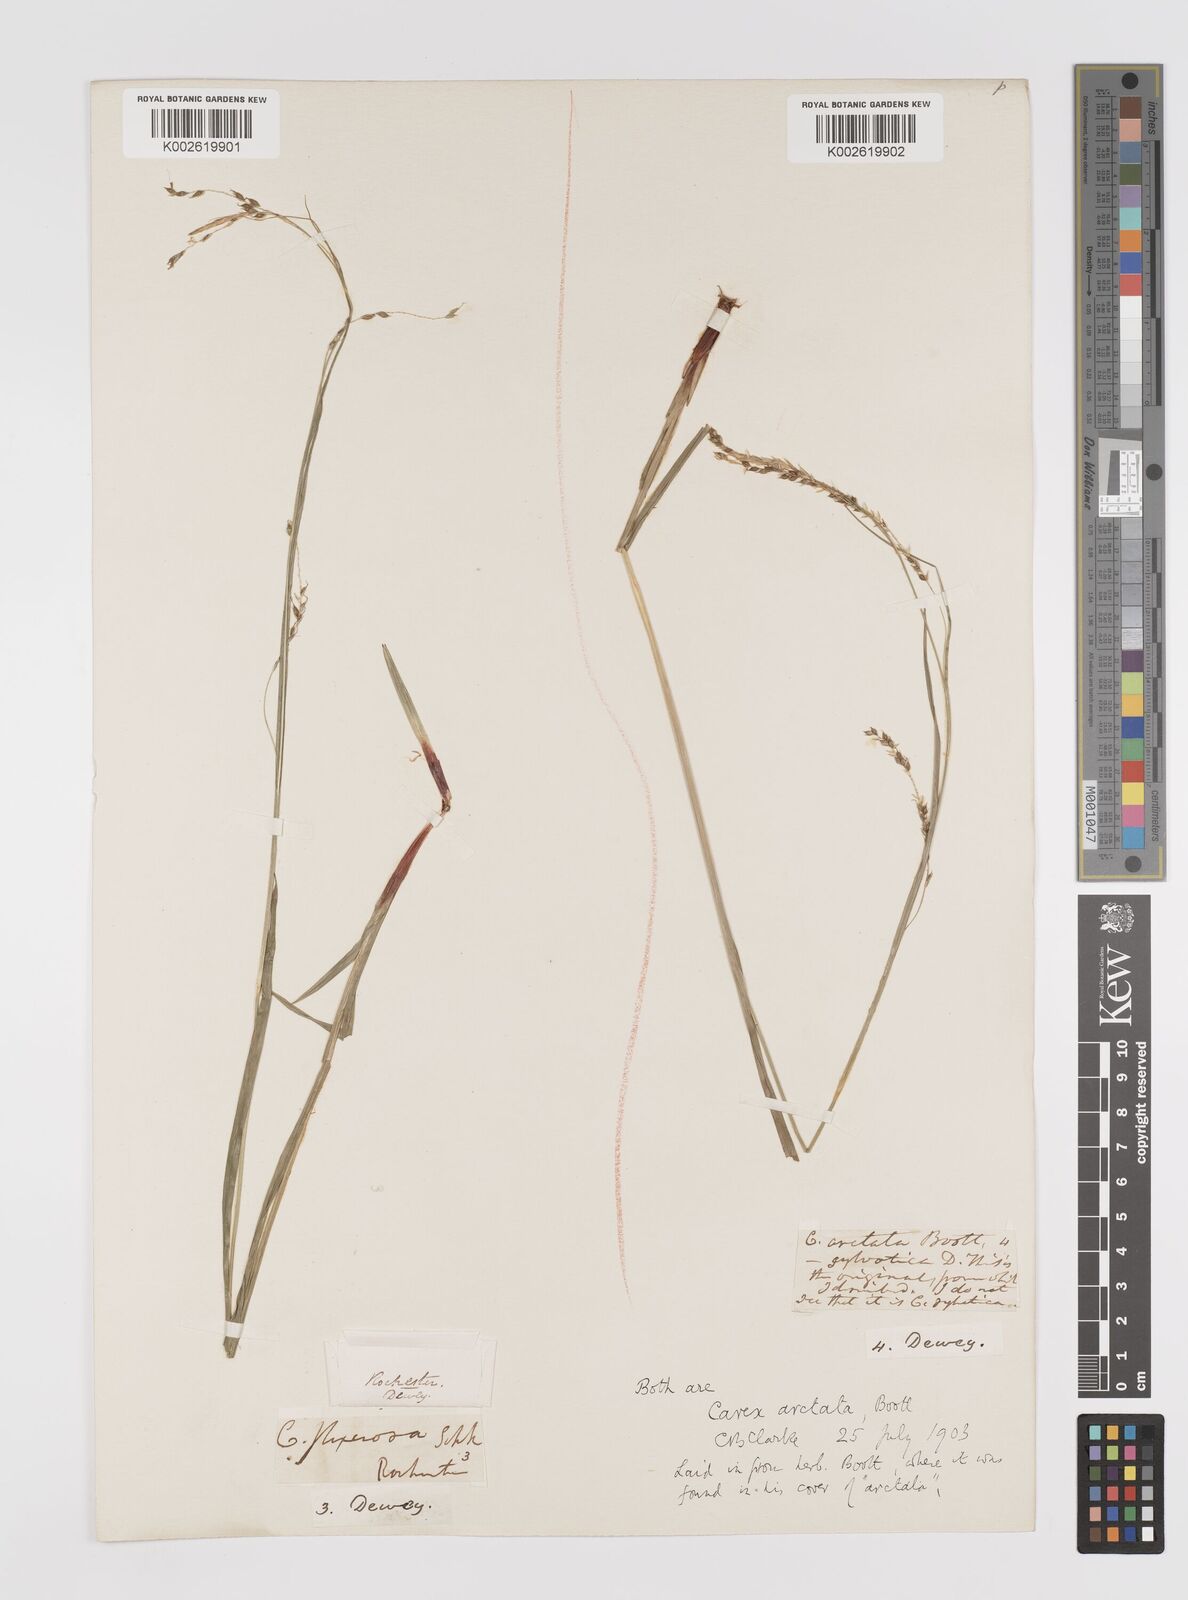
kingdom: Plantae
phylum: Tracheophyta
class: Liliopsida
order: Poales
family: Cyperaceae
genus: Carex
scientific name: Carex arctata
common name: Black sedge
